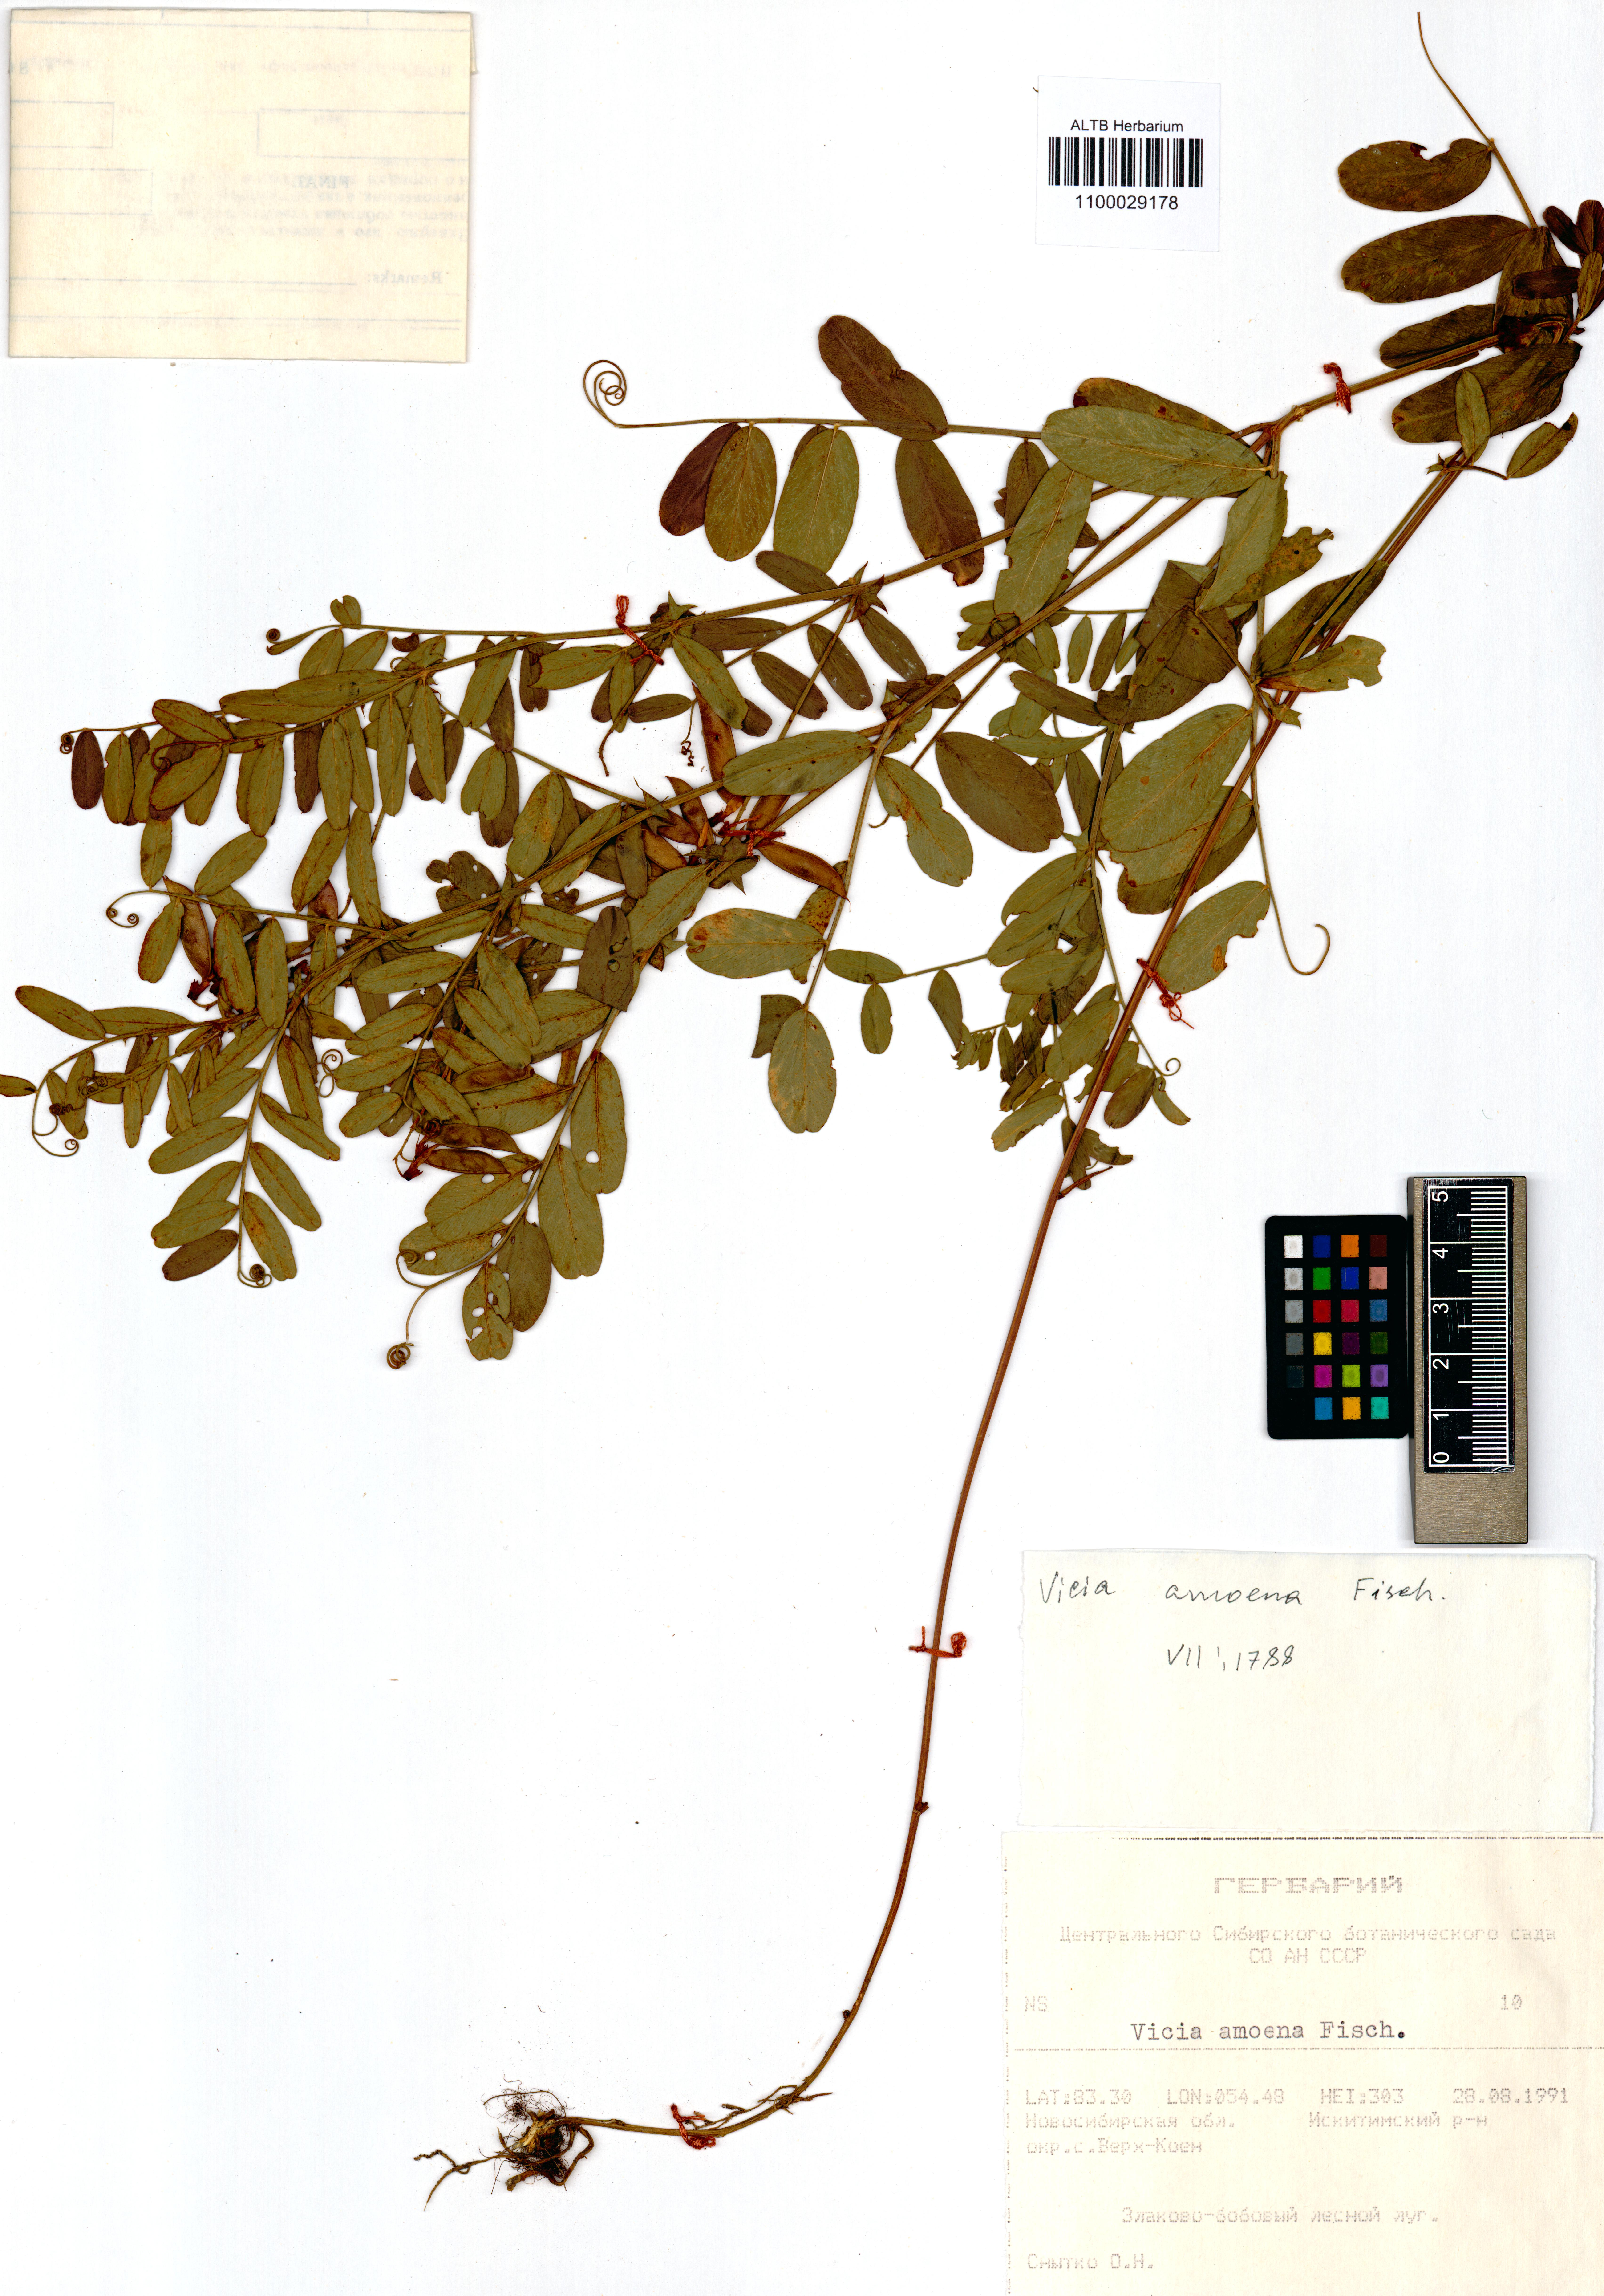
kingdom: Plantae
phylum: Tracheophyta
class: Magnoliopsida
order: Fabales
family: Fabaceae
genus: Vicia
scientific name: Vicia amoena
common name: Cheder ebs
